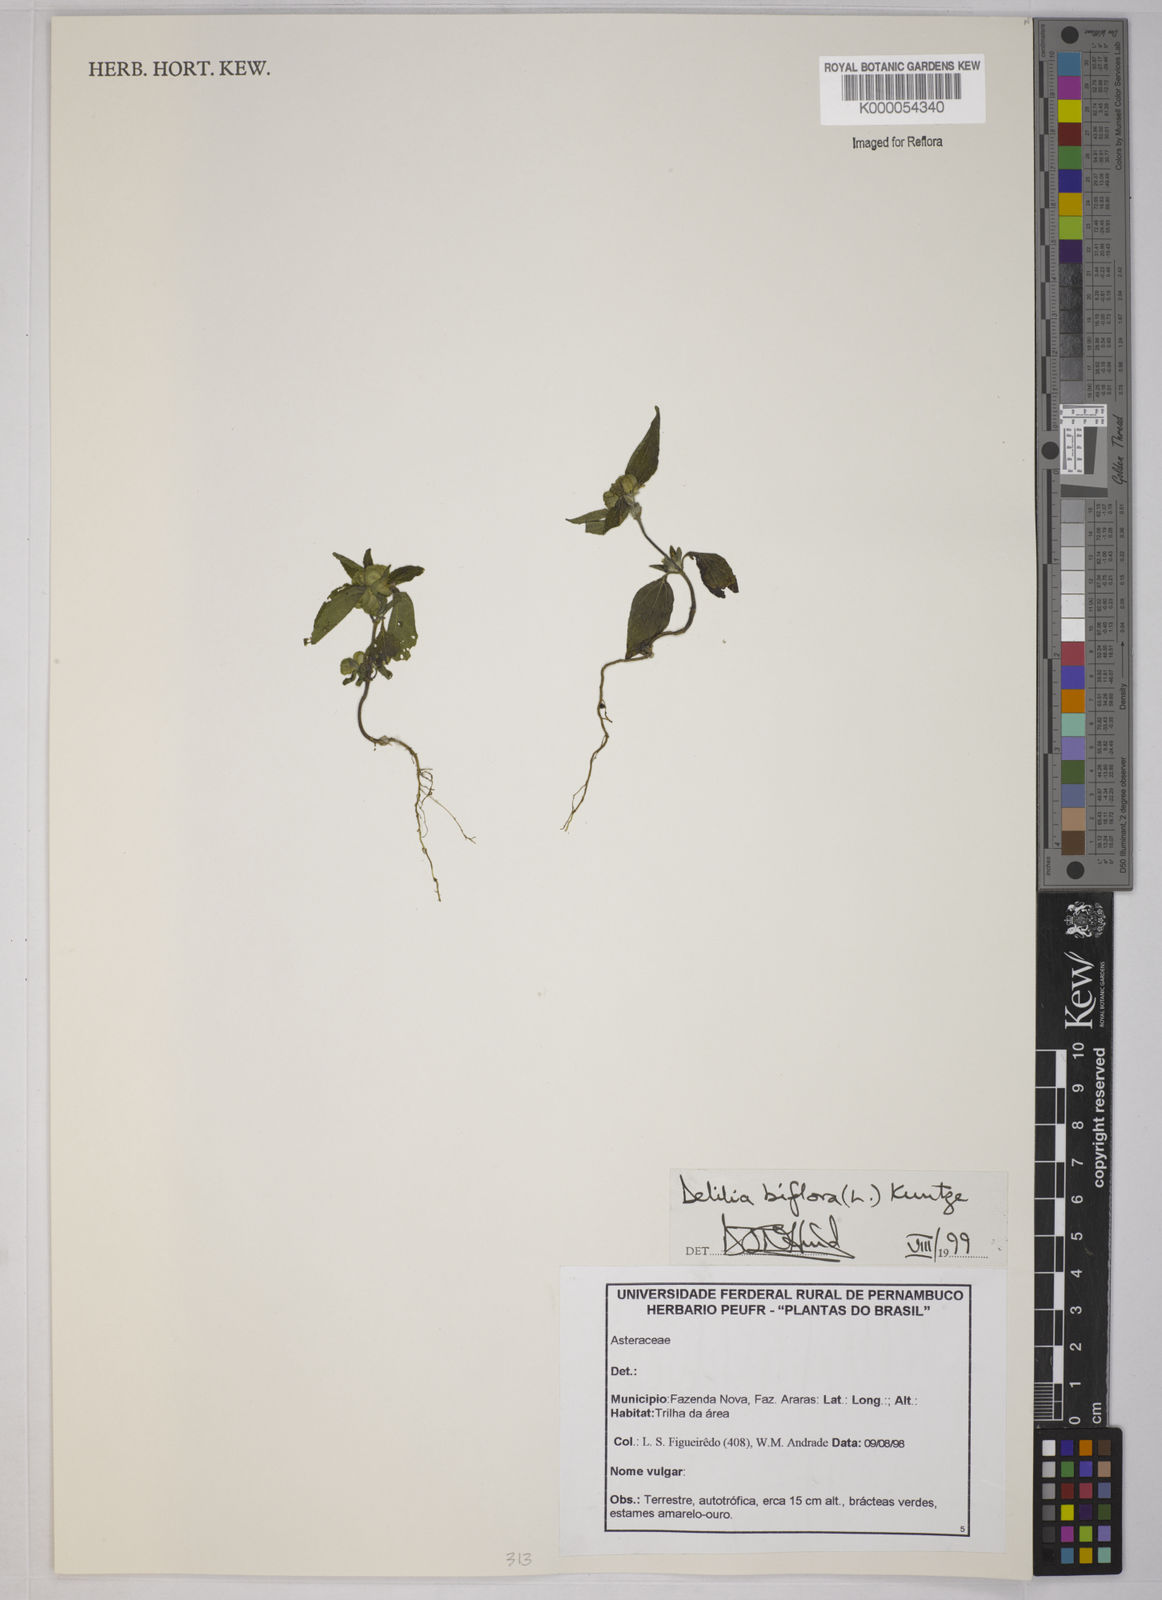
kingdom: Plantae
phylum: Tracheophyta
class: Magnoliopsida
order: Asterales
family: Asteraceae
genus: Delilia
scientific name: Delilia biflora
